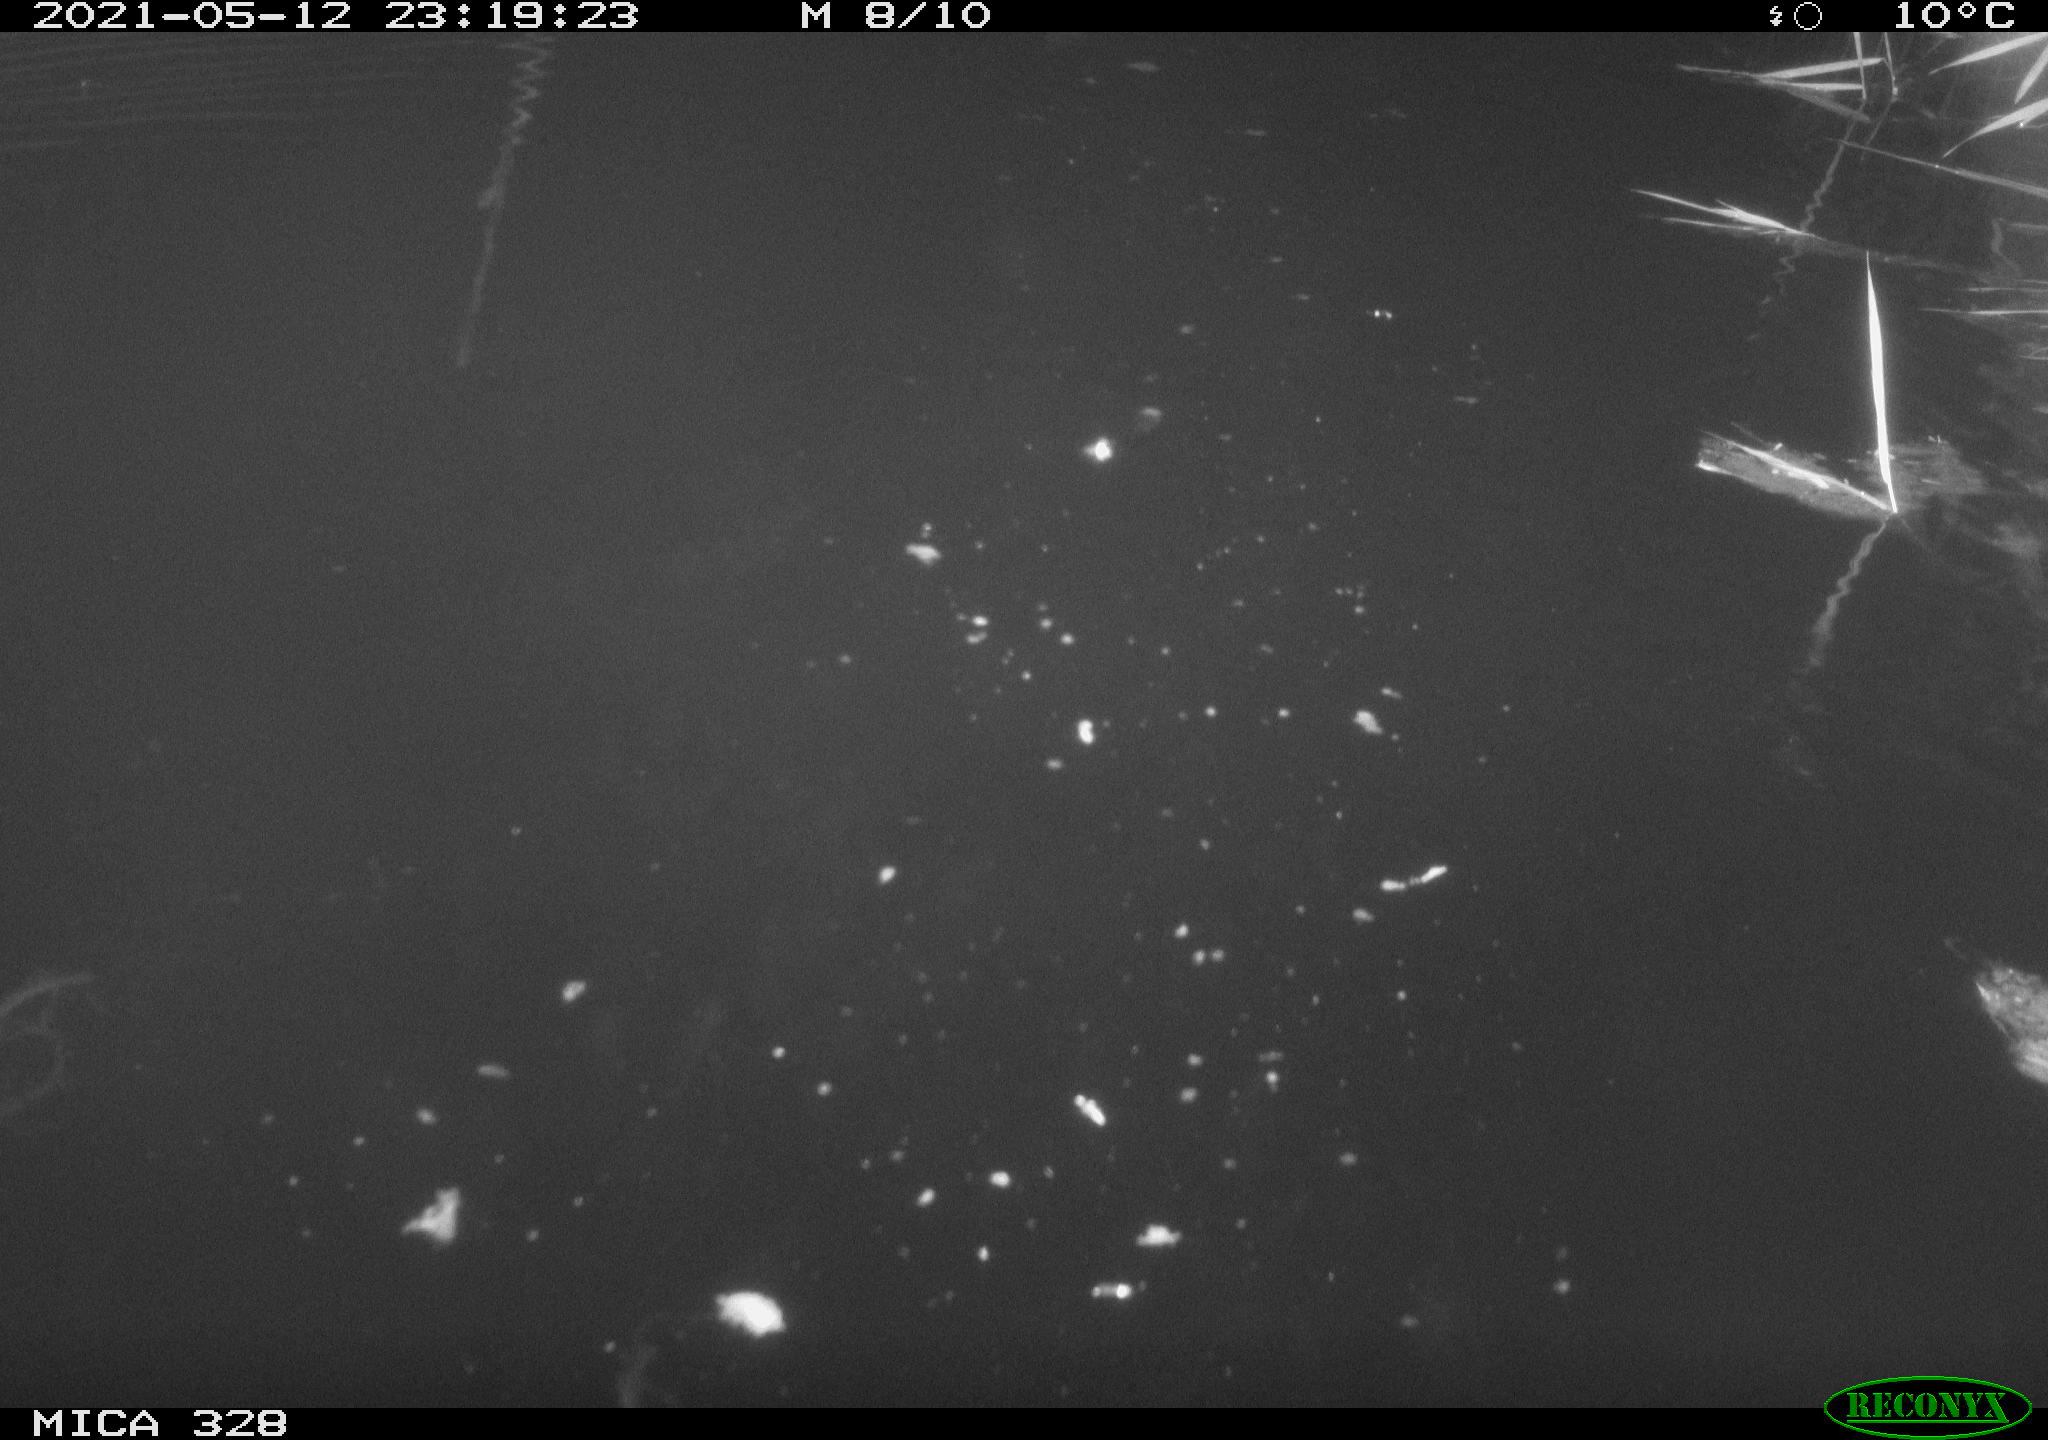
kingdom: Animalia
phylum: Chordata
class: Aves
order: Anseriformes
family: Anatidae
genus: Anas
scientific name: Anas platyrhynchos
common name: Mallard
